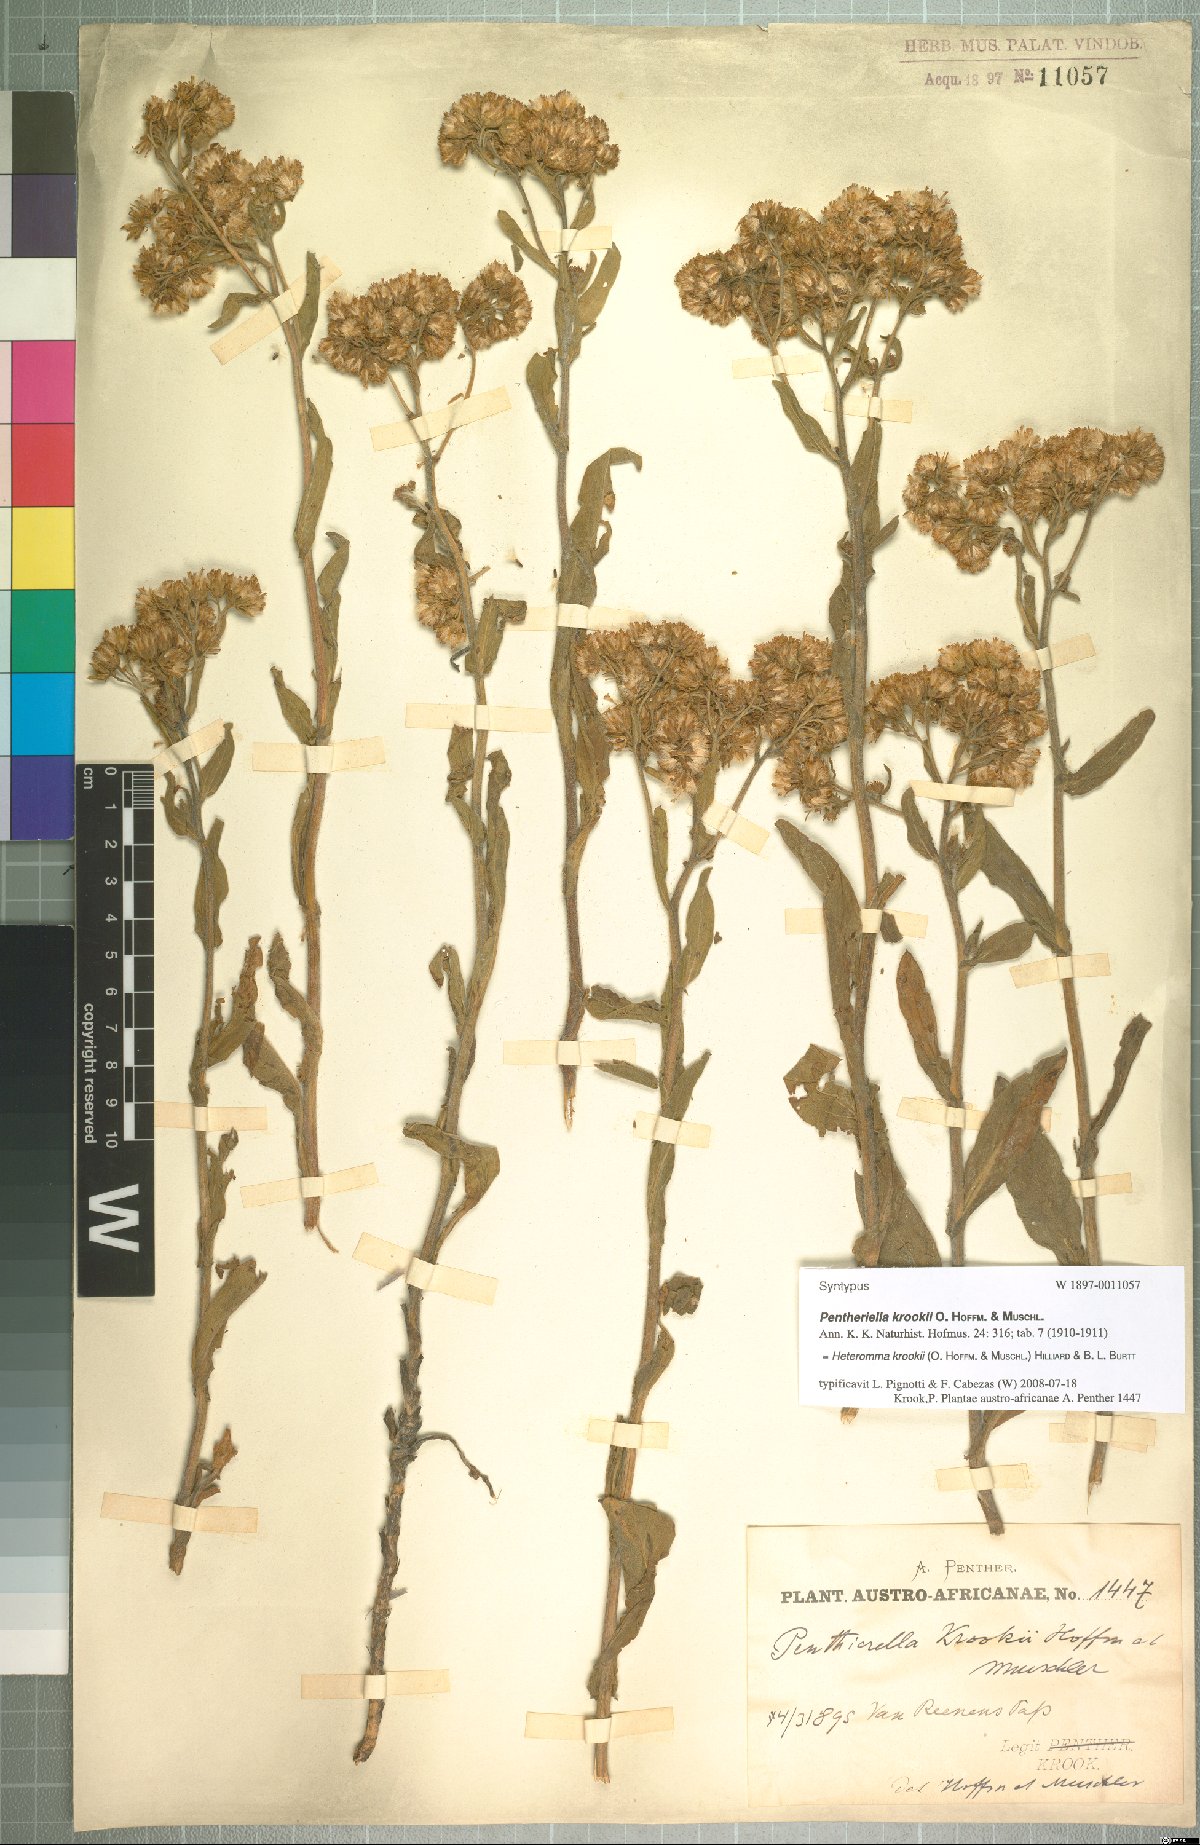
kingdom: Plantae
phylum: Tracheophyta
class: Magnoliopsida
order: Asterales
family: Asteraceae
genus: Heteromma
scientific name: Heteromma krookii
